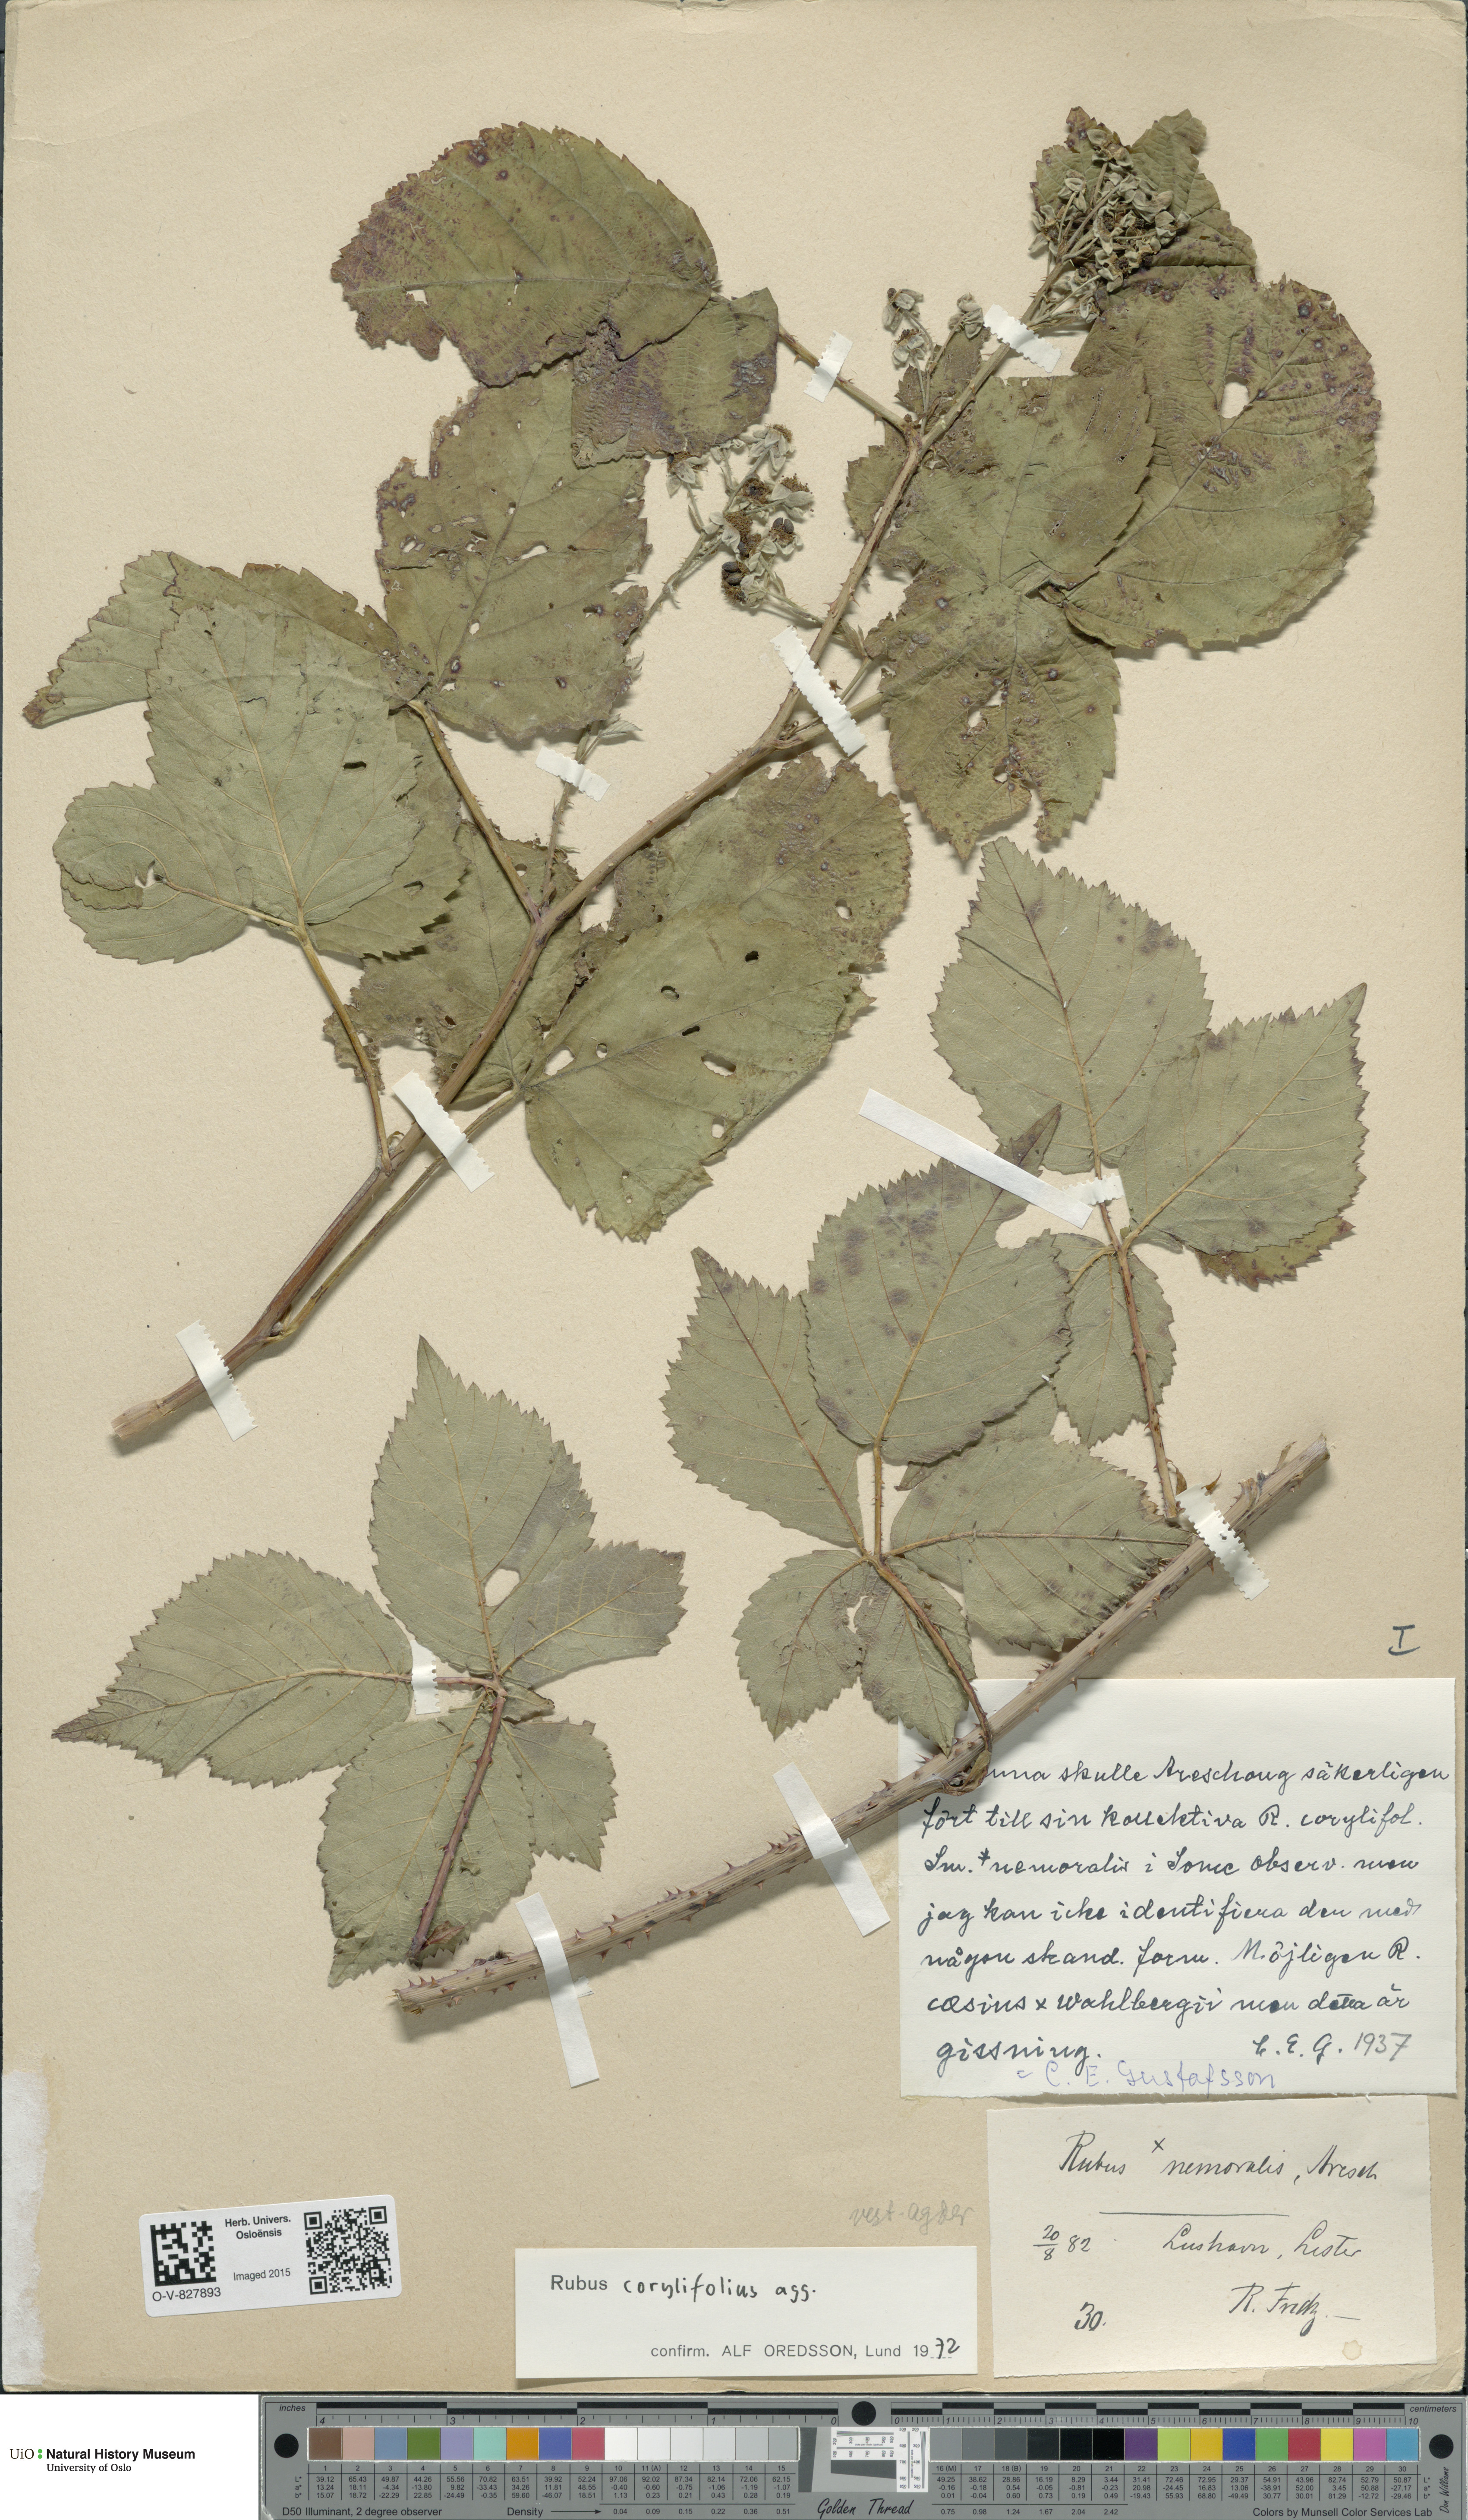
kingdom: Plantae
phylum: Tracheophyta
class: Magnoliopsida
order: Rosales
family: Rosaceae
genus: Rubus
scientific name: Rubus
